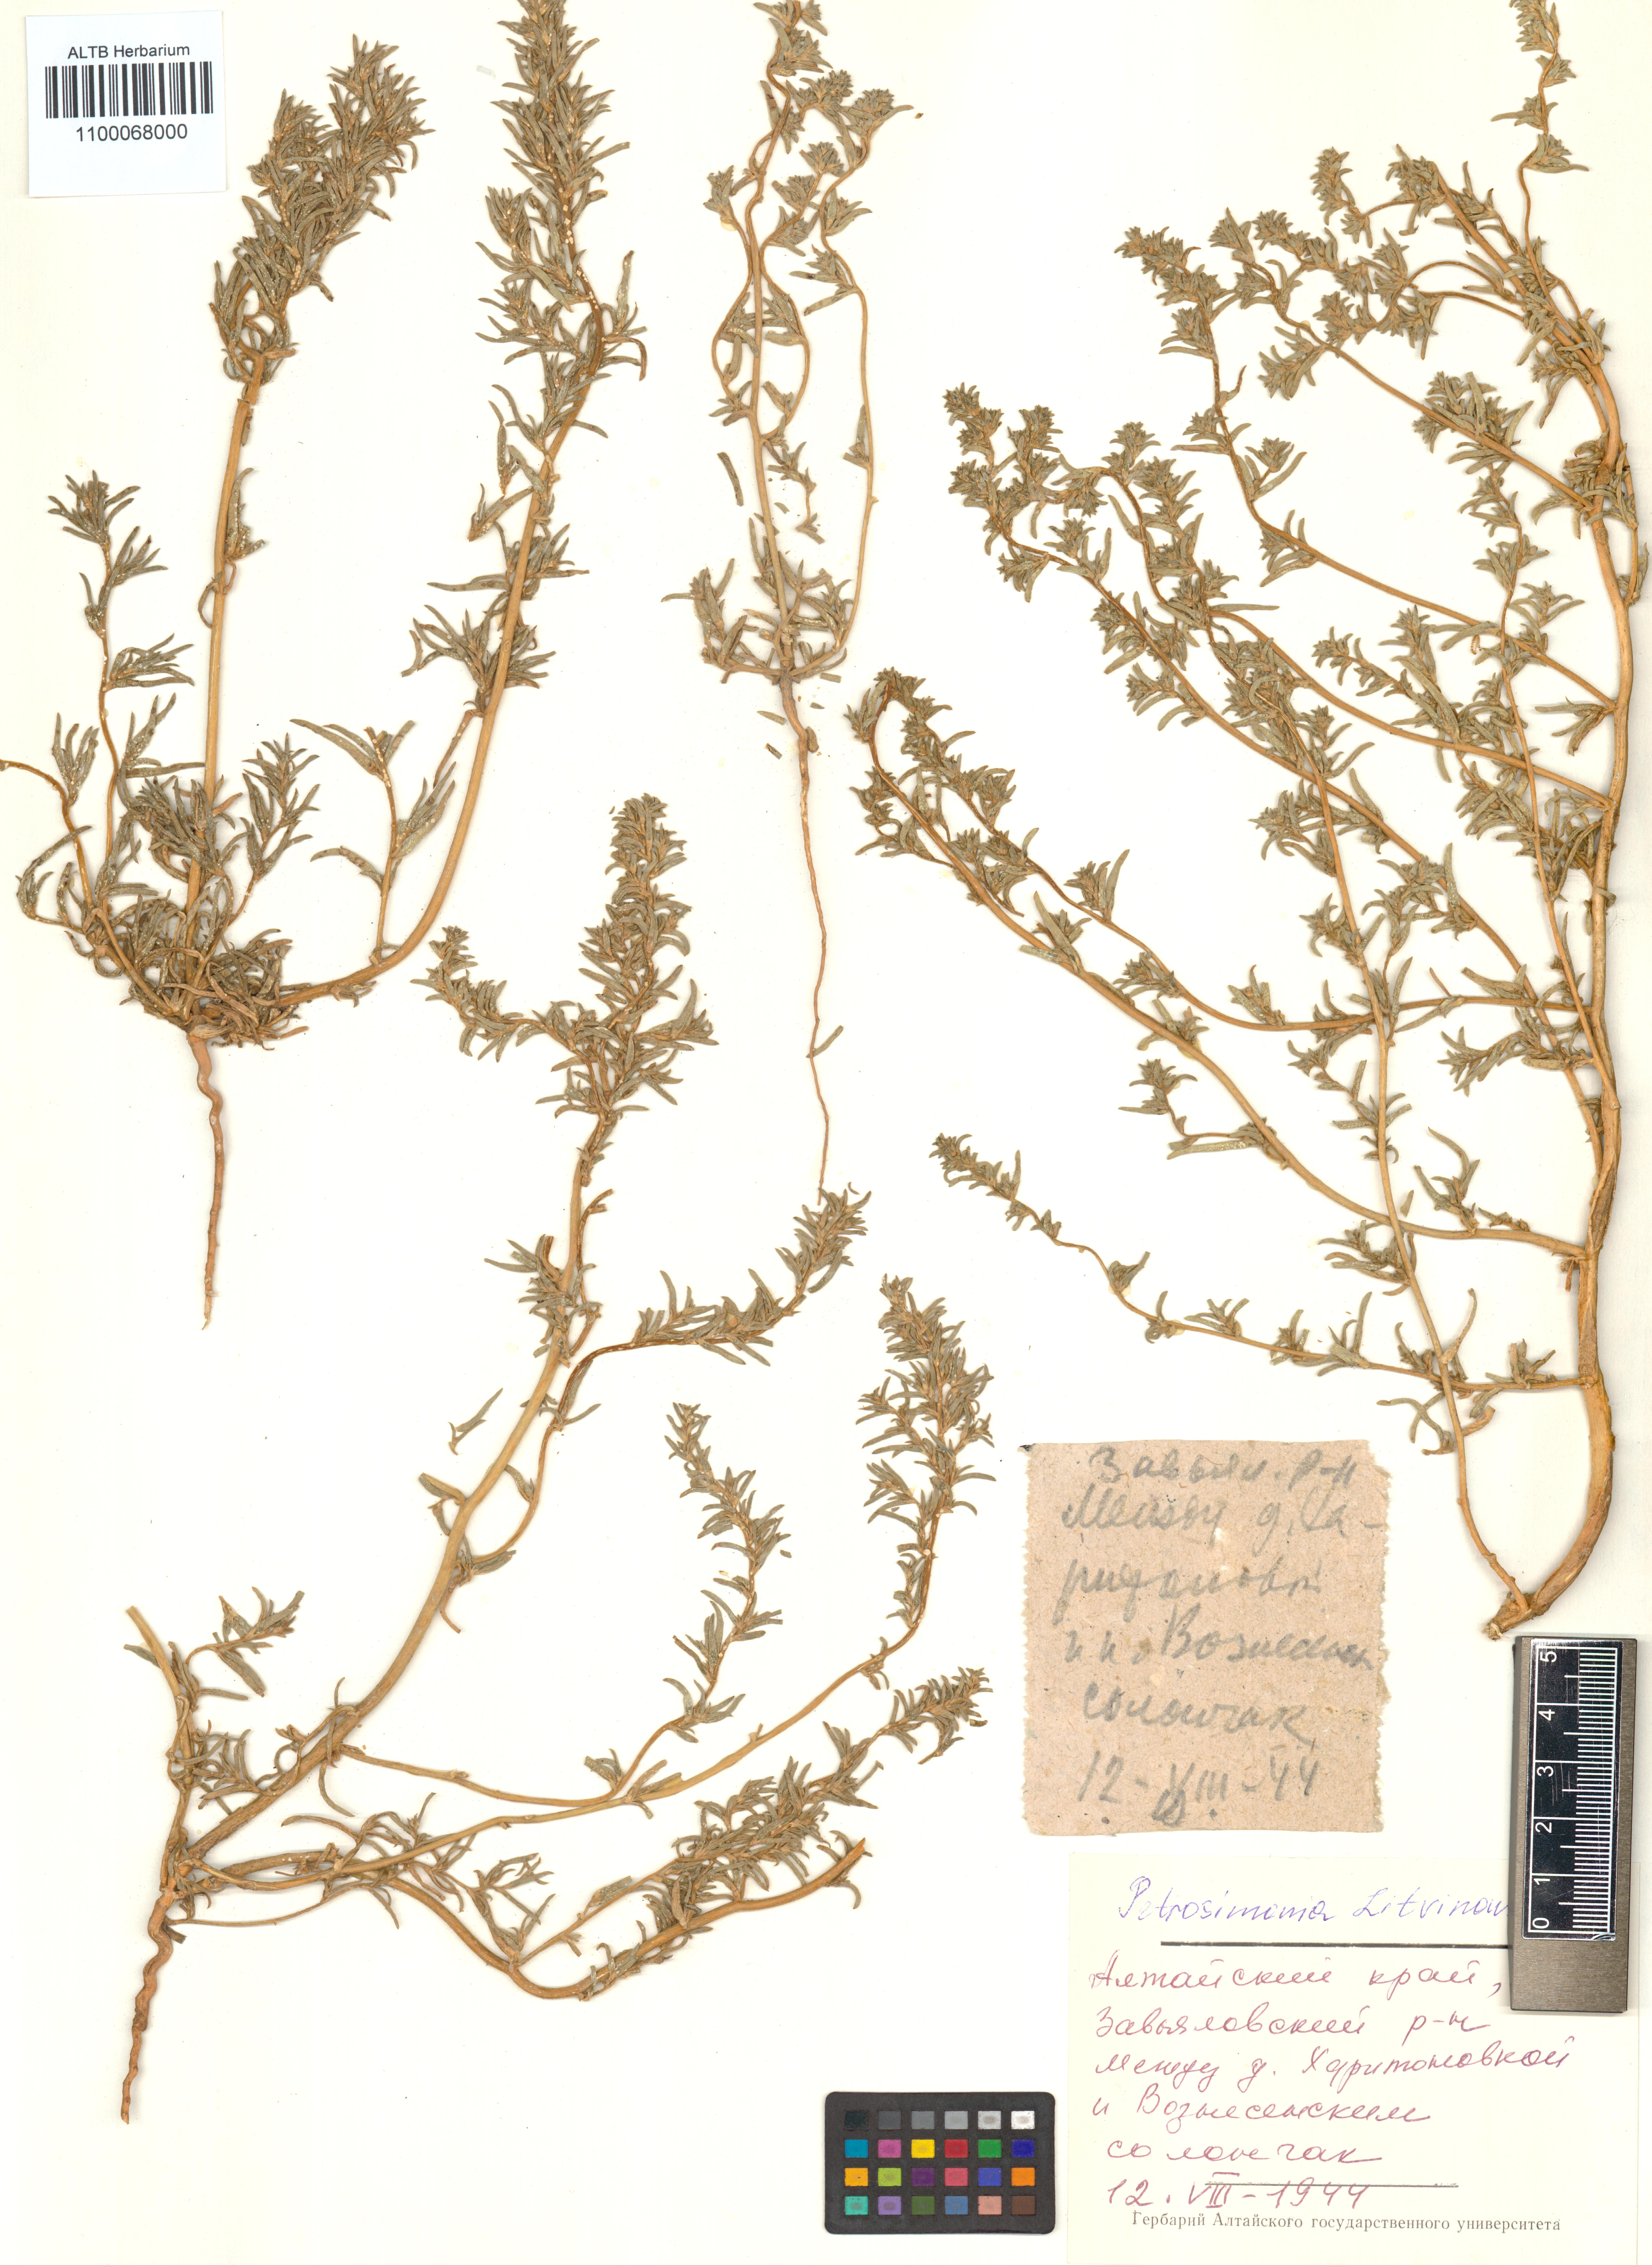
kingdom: Plantae
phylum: Tracheophyta
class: Magnoliopsida
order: Caryophyllales
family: Amaranthaceae
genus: Petrosimonia
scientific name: Petrosimonia litvinowi
